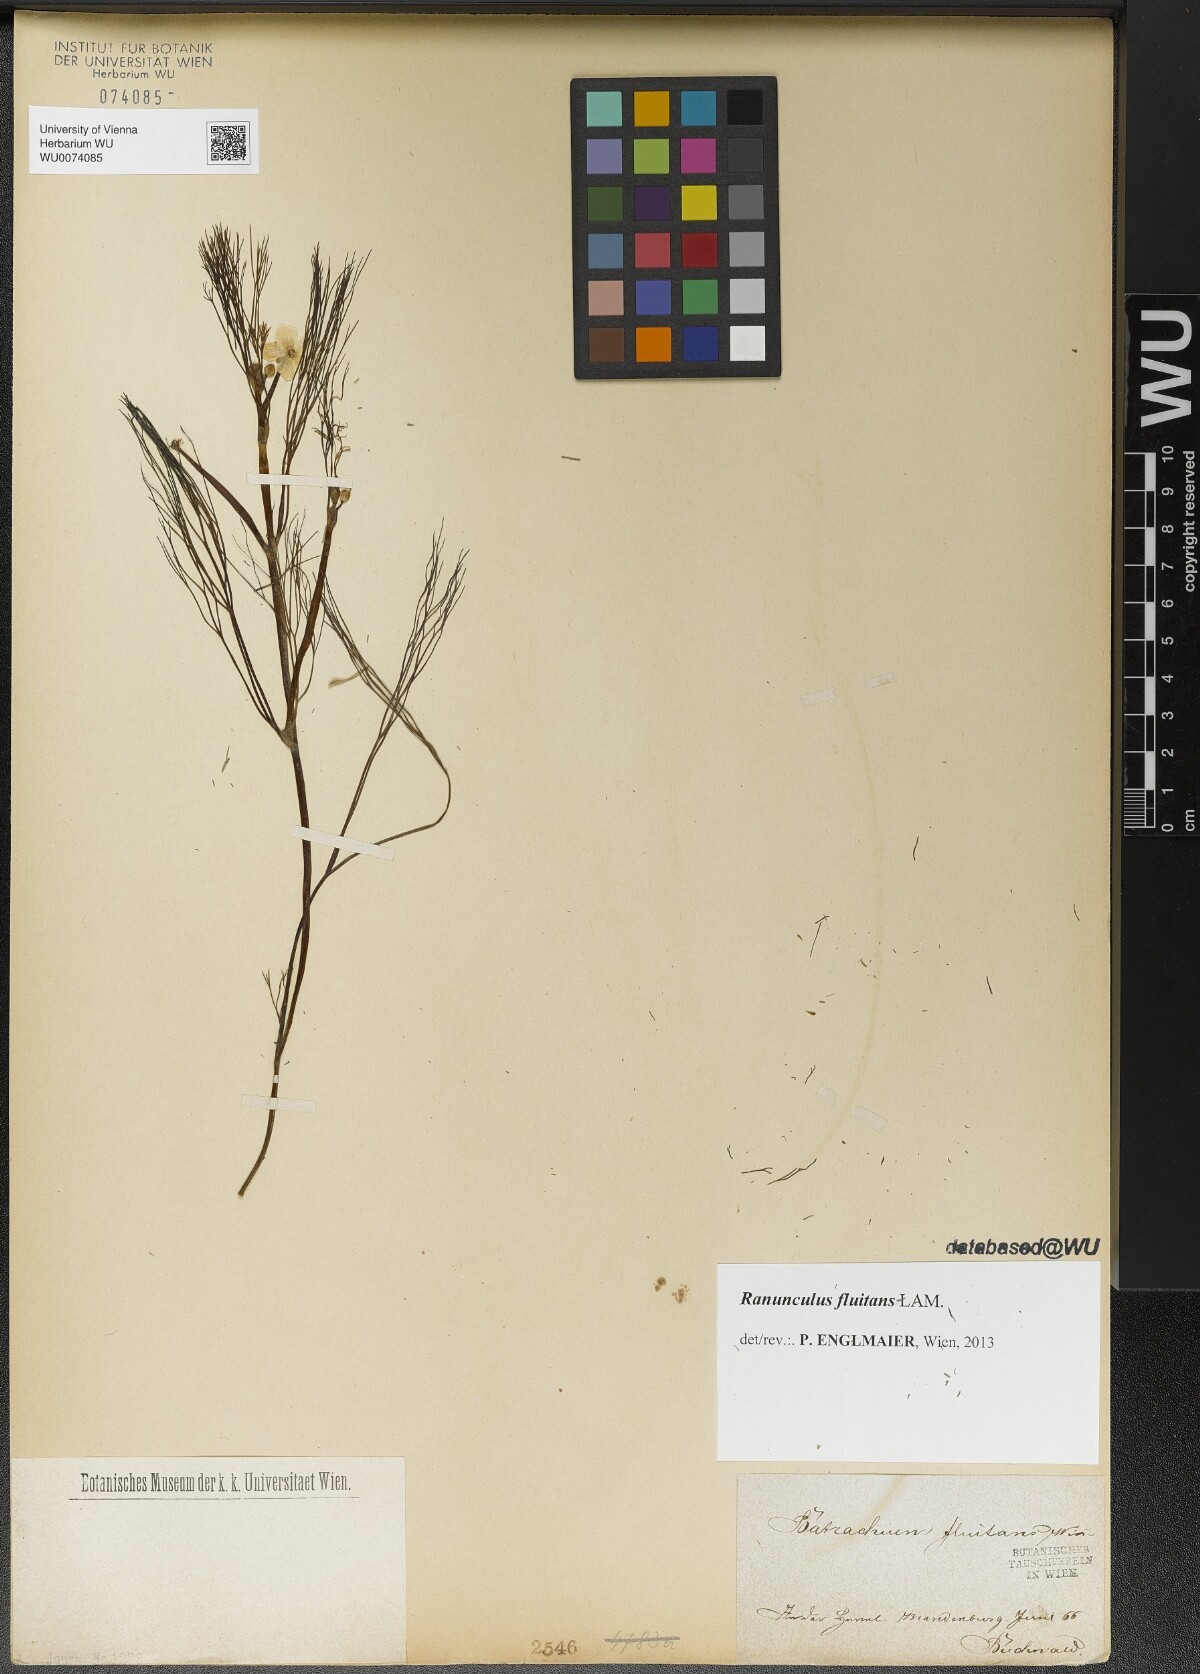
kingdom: Plantae
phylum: Tracheophyta
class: Magnoliopsida
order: Ranunculales
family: Ranunculaceae
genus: Ranunculus
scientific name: Ranunculus fluitans
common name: River water-crowfoot
